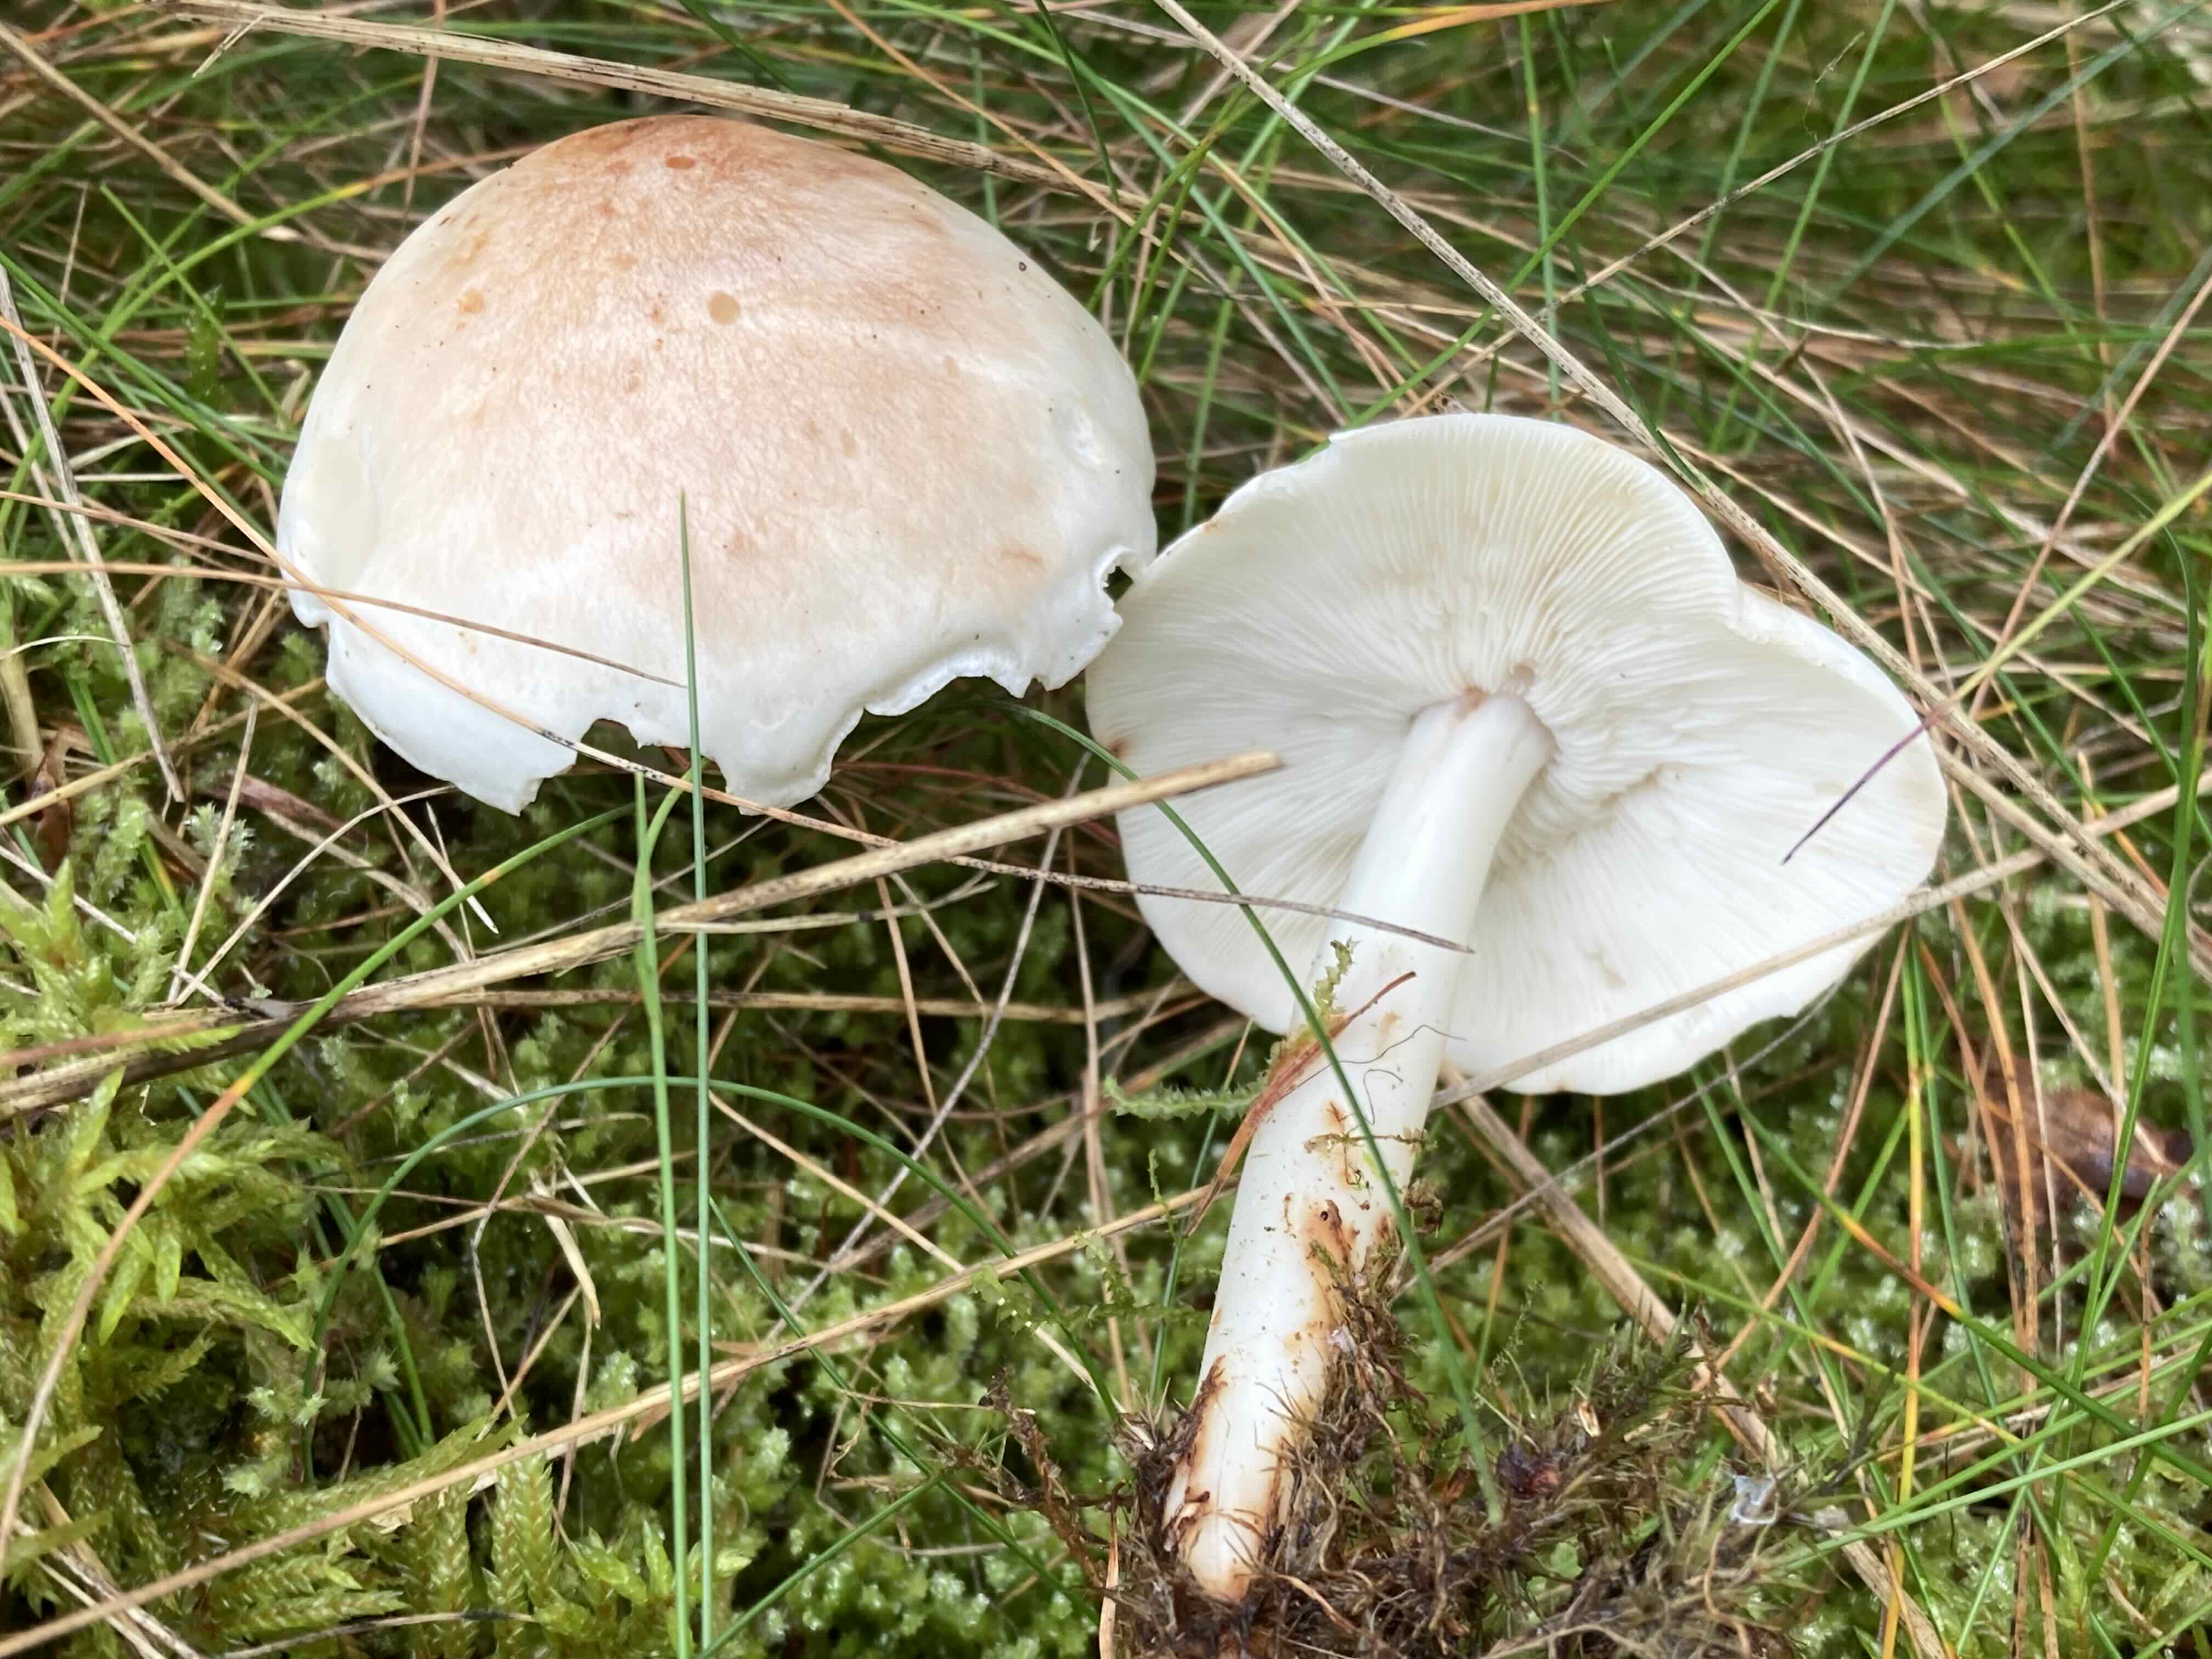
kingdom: Fungi
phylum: Basidiomycota
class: Agaricomycetes
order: Agaricales
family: Omphalotaceae
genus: Rhodocollybia
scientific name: Rhodocollybia maculata
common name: plettet fladhat
